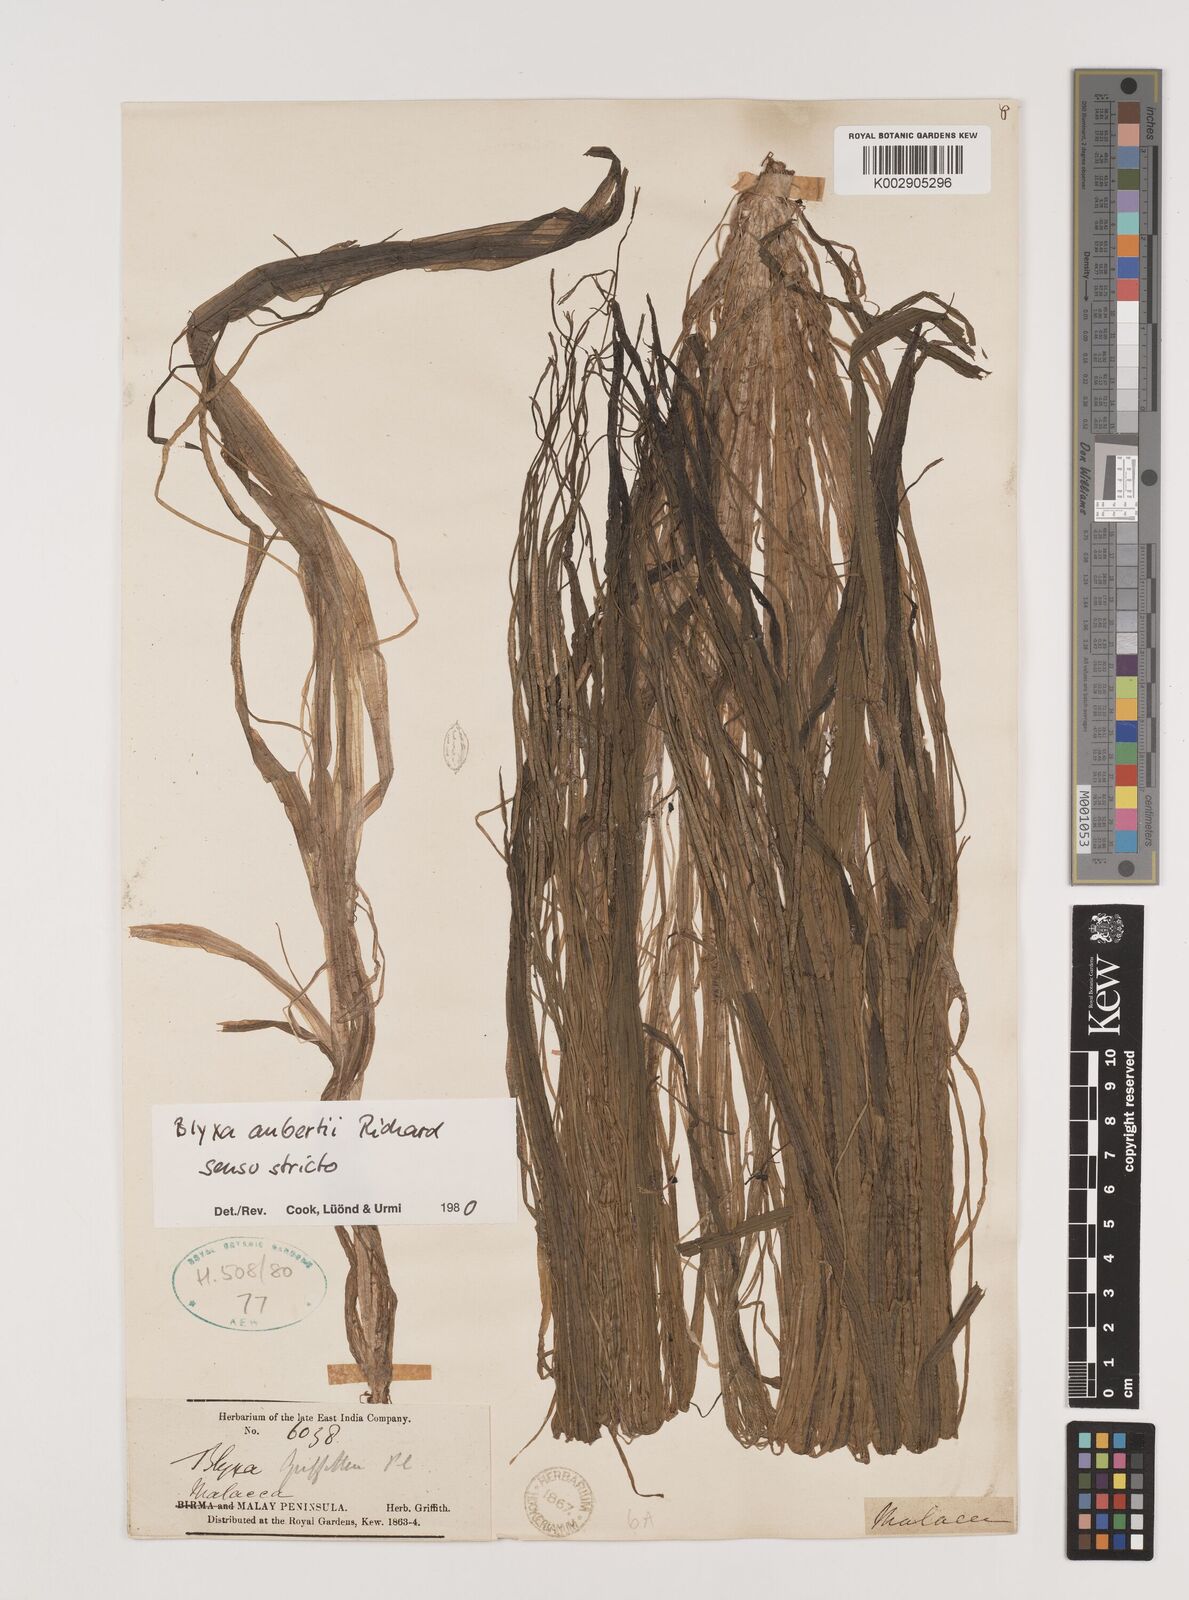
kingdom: Plantae
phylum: Tracheophyta
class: Liliopsida
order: Alismatales
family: Hydrocharitaceae
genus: Blyxa
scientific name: Blyxa aubertii
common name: Roundfruit blyxa
